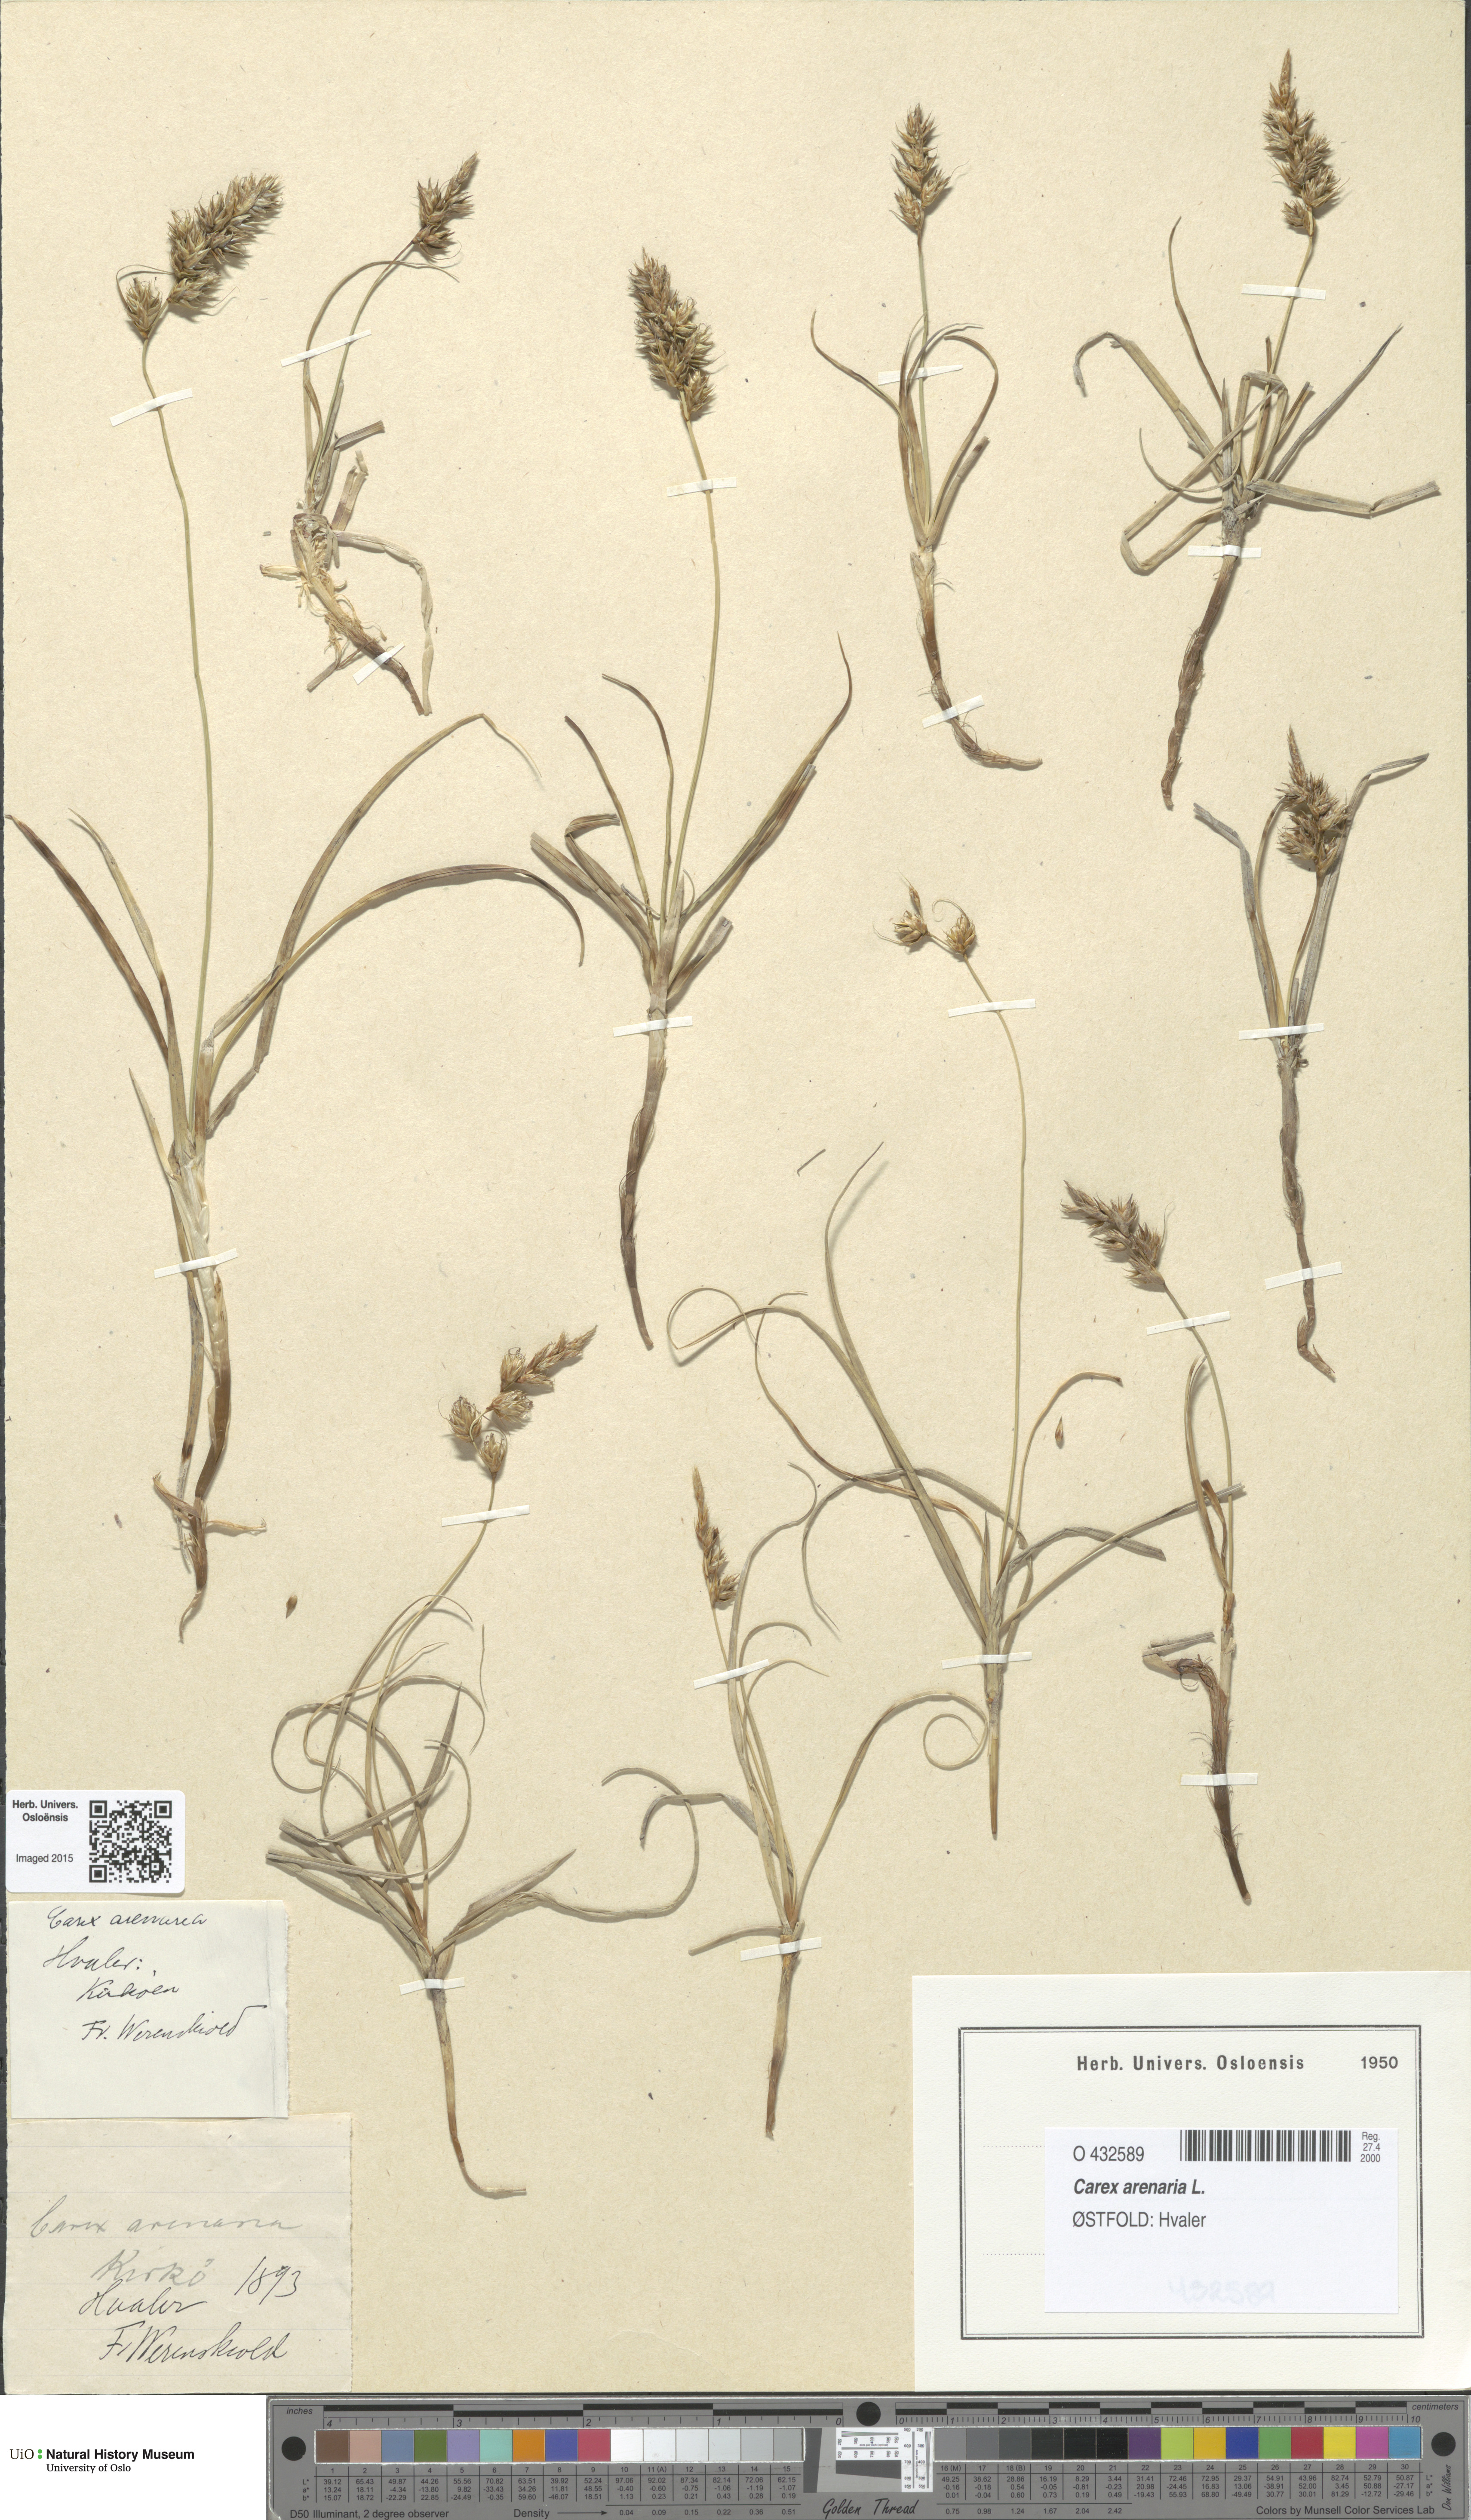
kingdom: Plantae
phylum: Tracheophyta
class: Liliopsida
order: Poales
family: Cyperaceae
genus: Carex
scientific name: Carex arenaria
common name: Sand sedge
